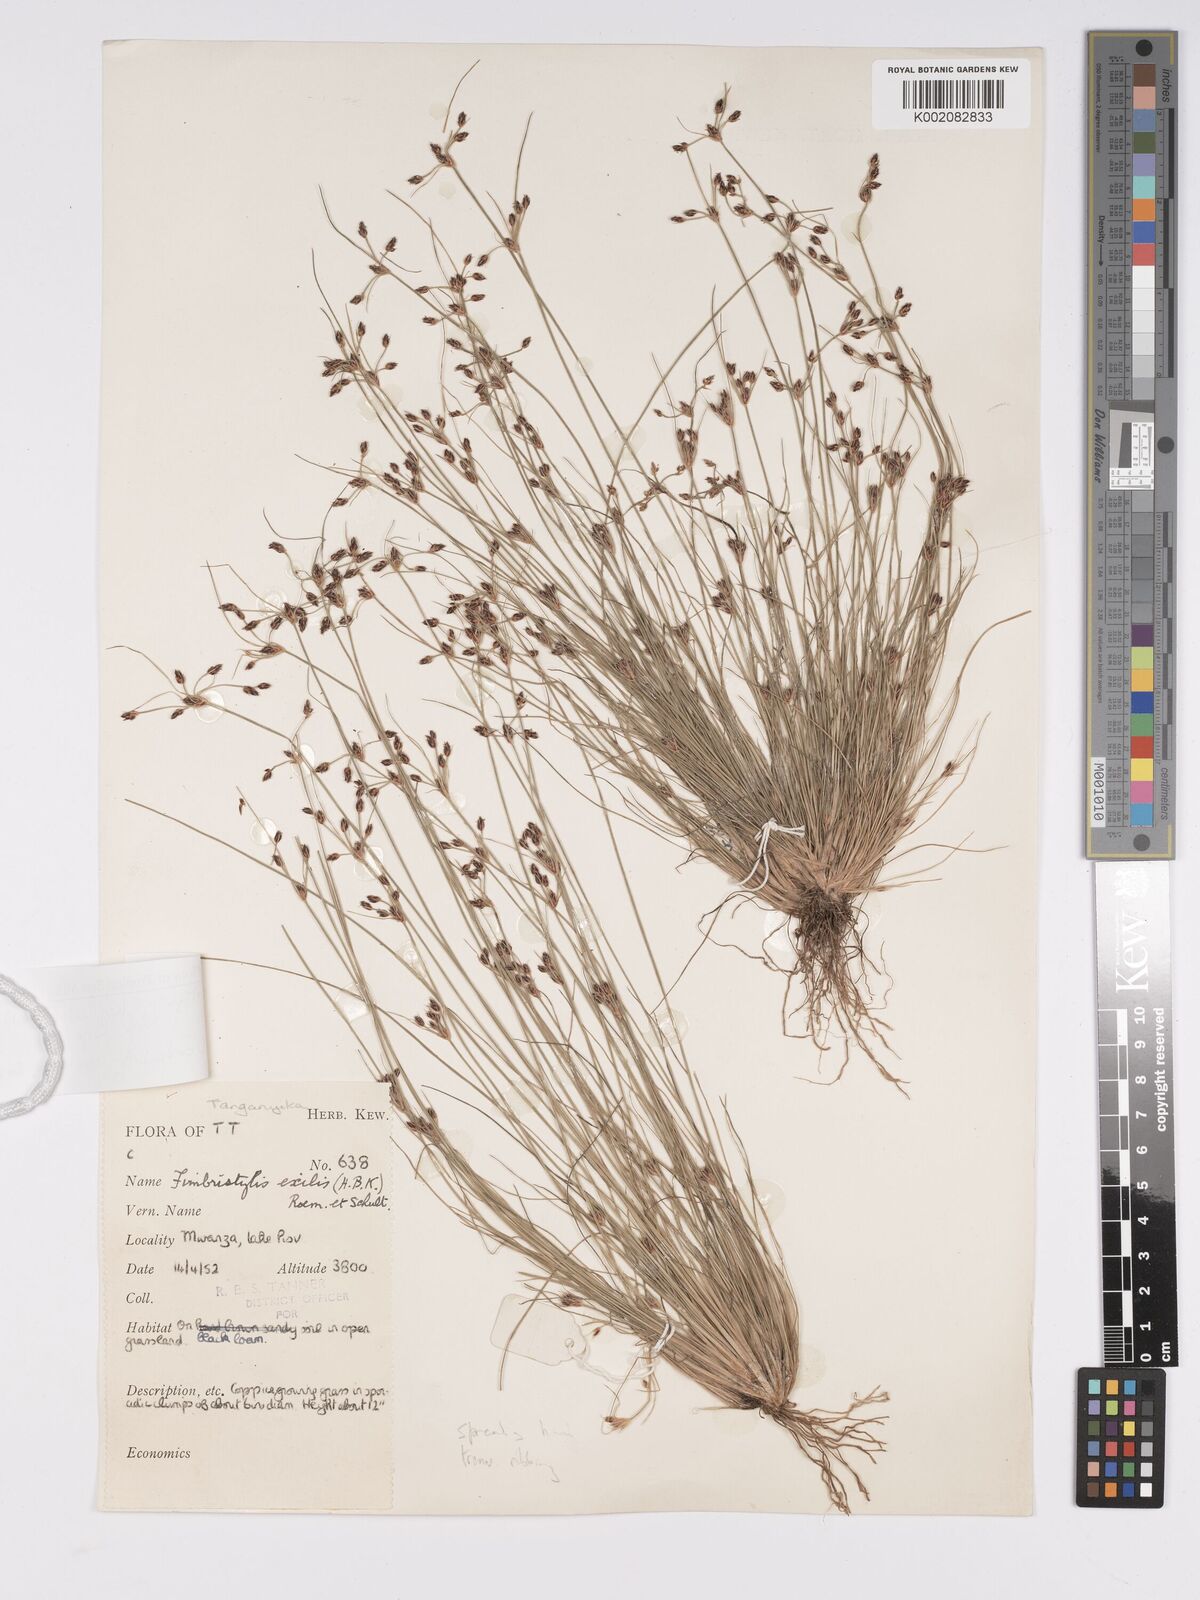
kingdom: Plantae
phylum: Tracheophyta
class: Liliopsida
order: Poales
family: Cyperaceae
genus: Bulbostylis
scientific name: Bulbostylis hispidula
